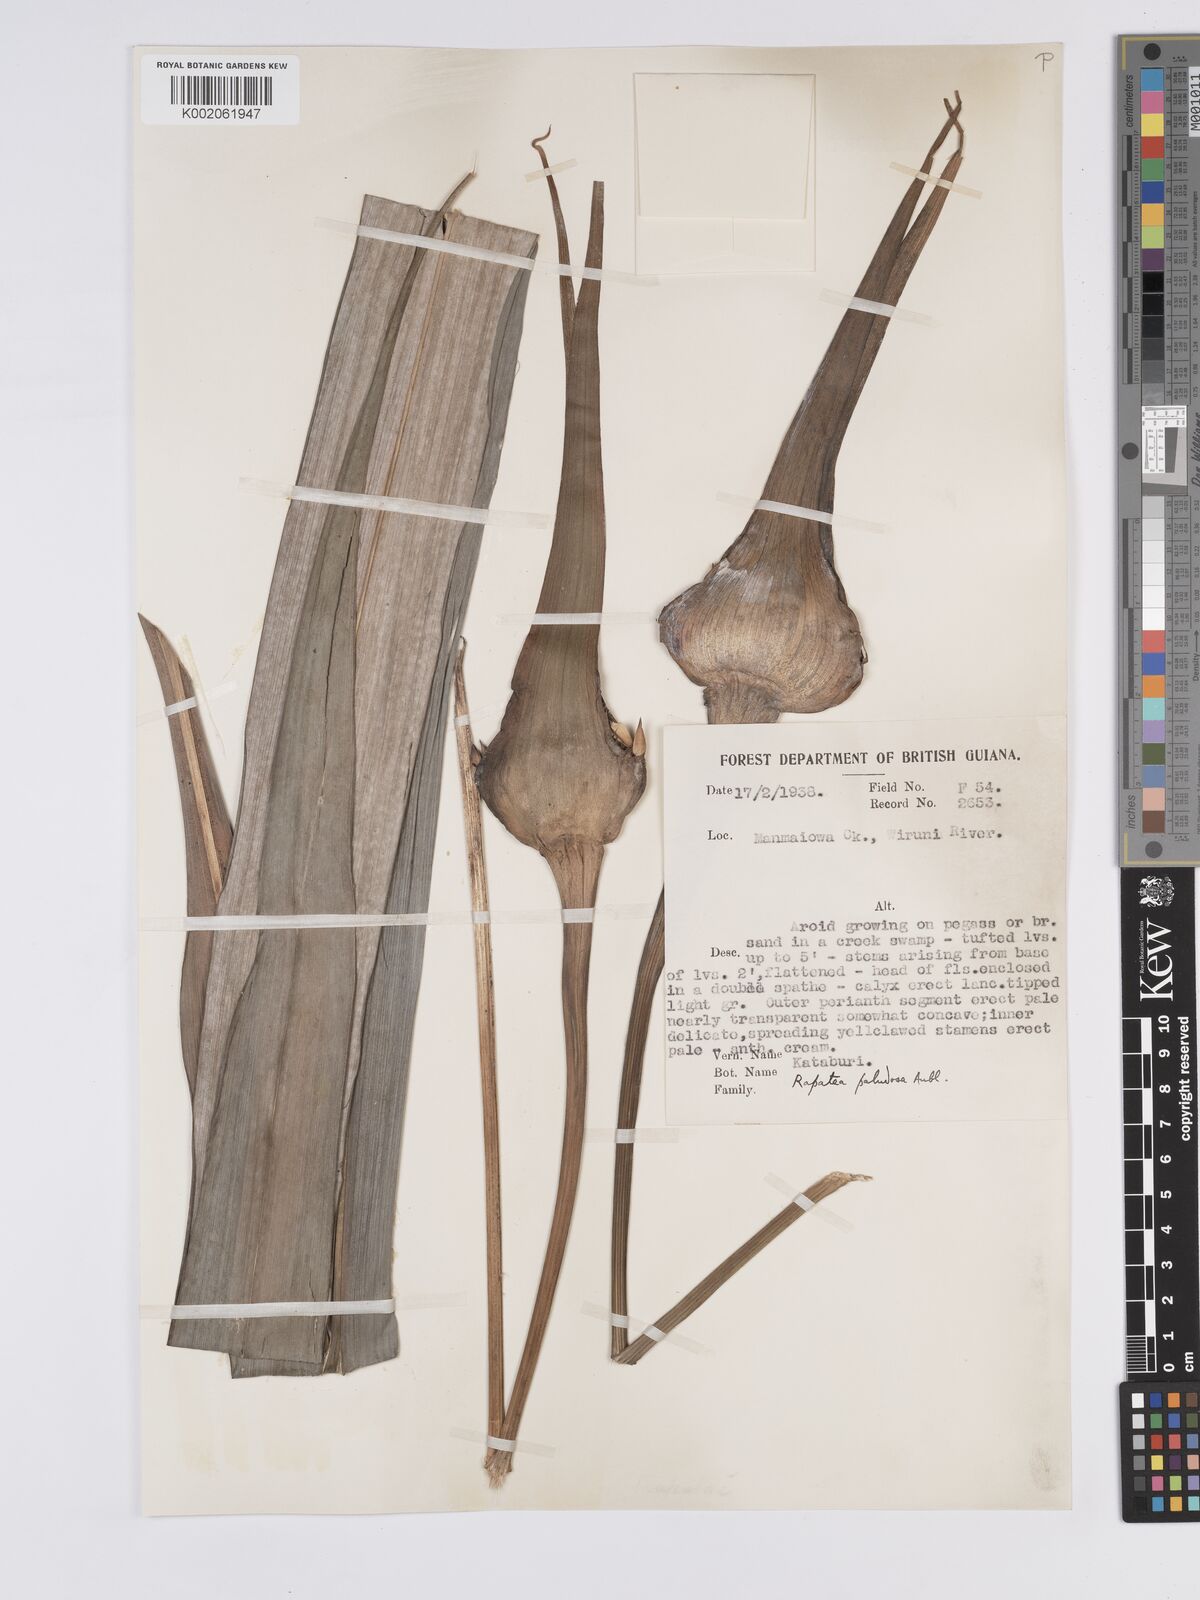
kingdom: Plantae
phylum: Tracheophyta
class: Liliopsida
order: Poales
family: Rapateaceae
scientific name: Rapateaceae
